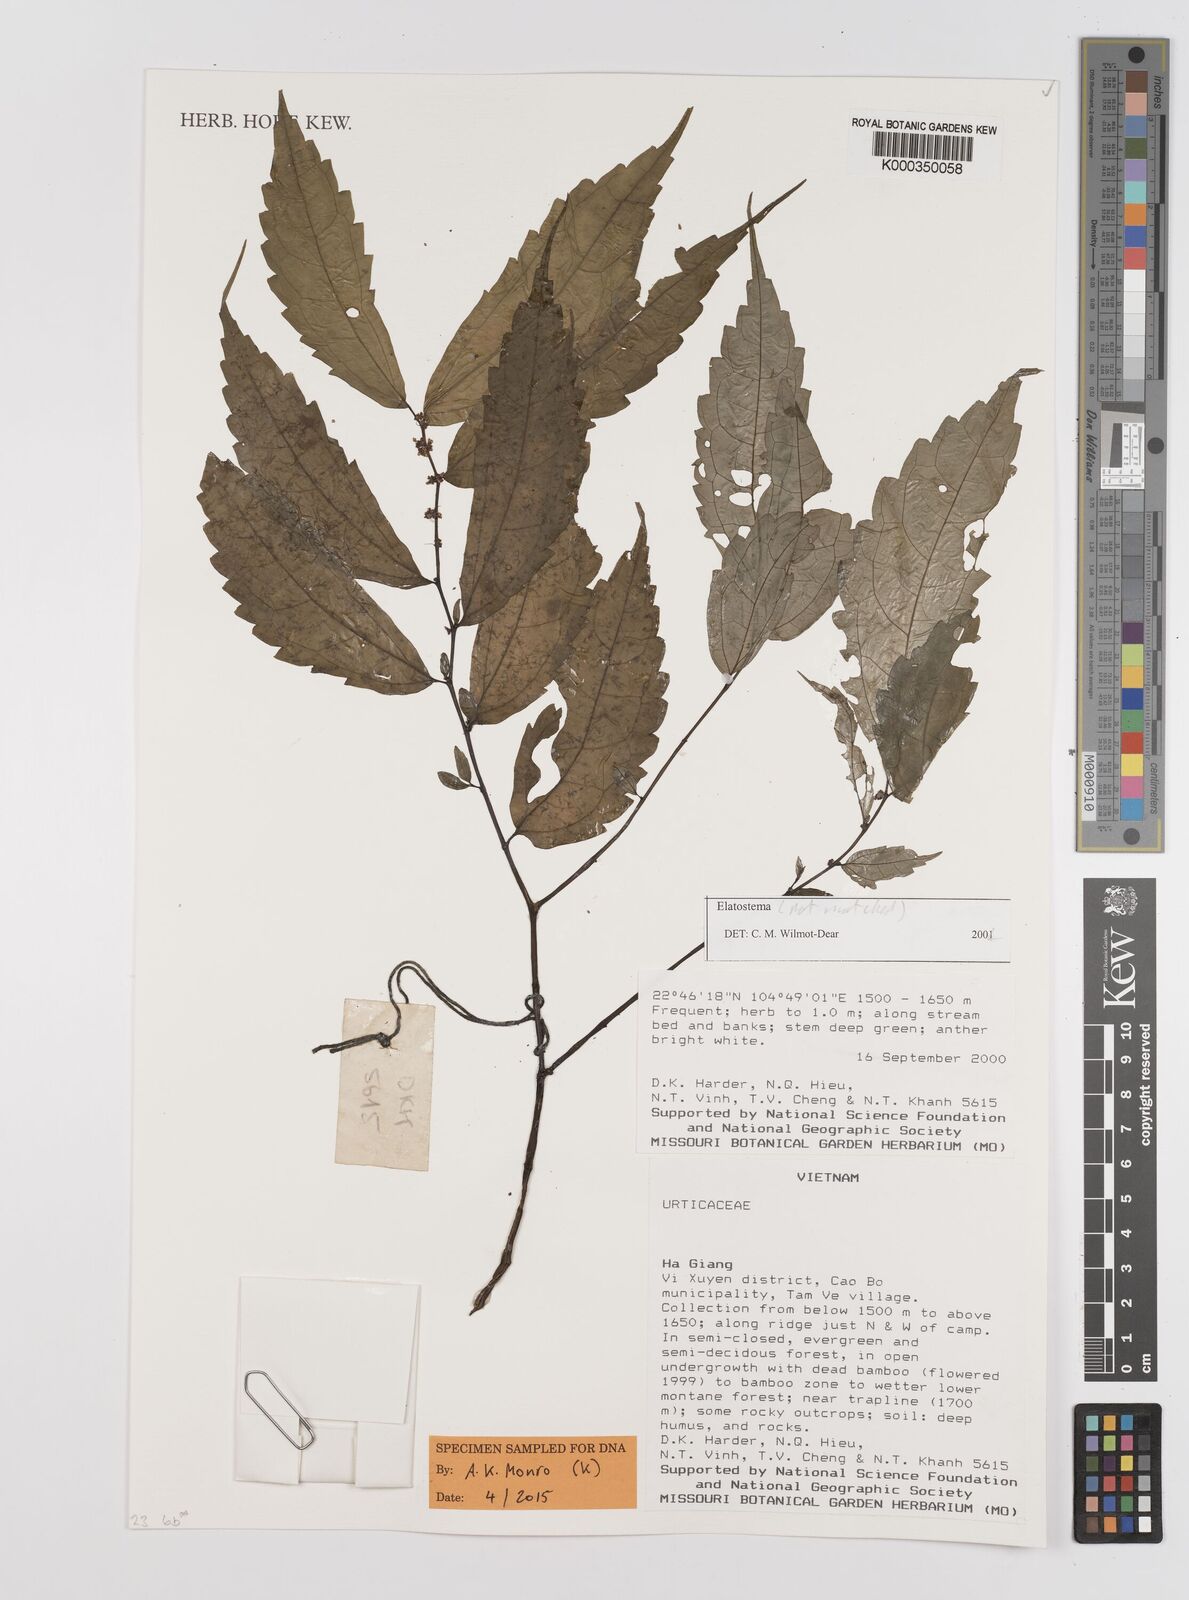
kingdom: Plantae
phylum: Tracheophyta
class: Magnoliopsida
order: Rosales
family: Urticaceae
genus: Elatostema
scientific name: Elatostema
